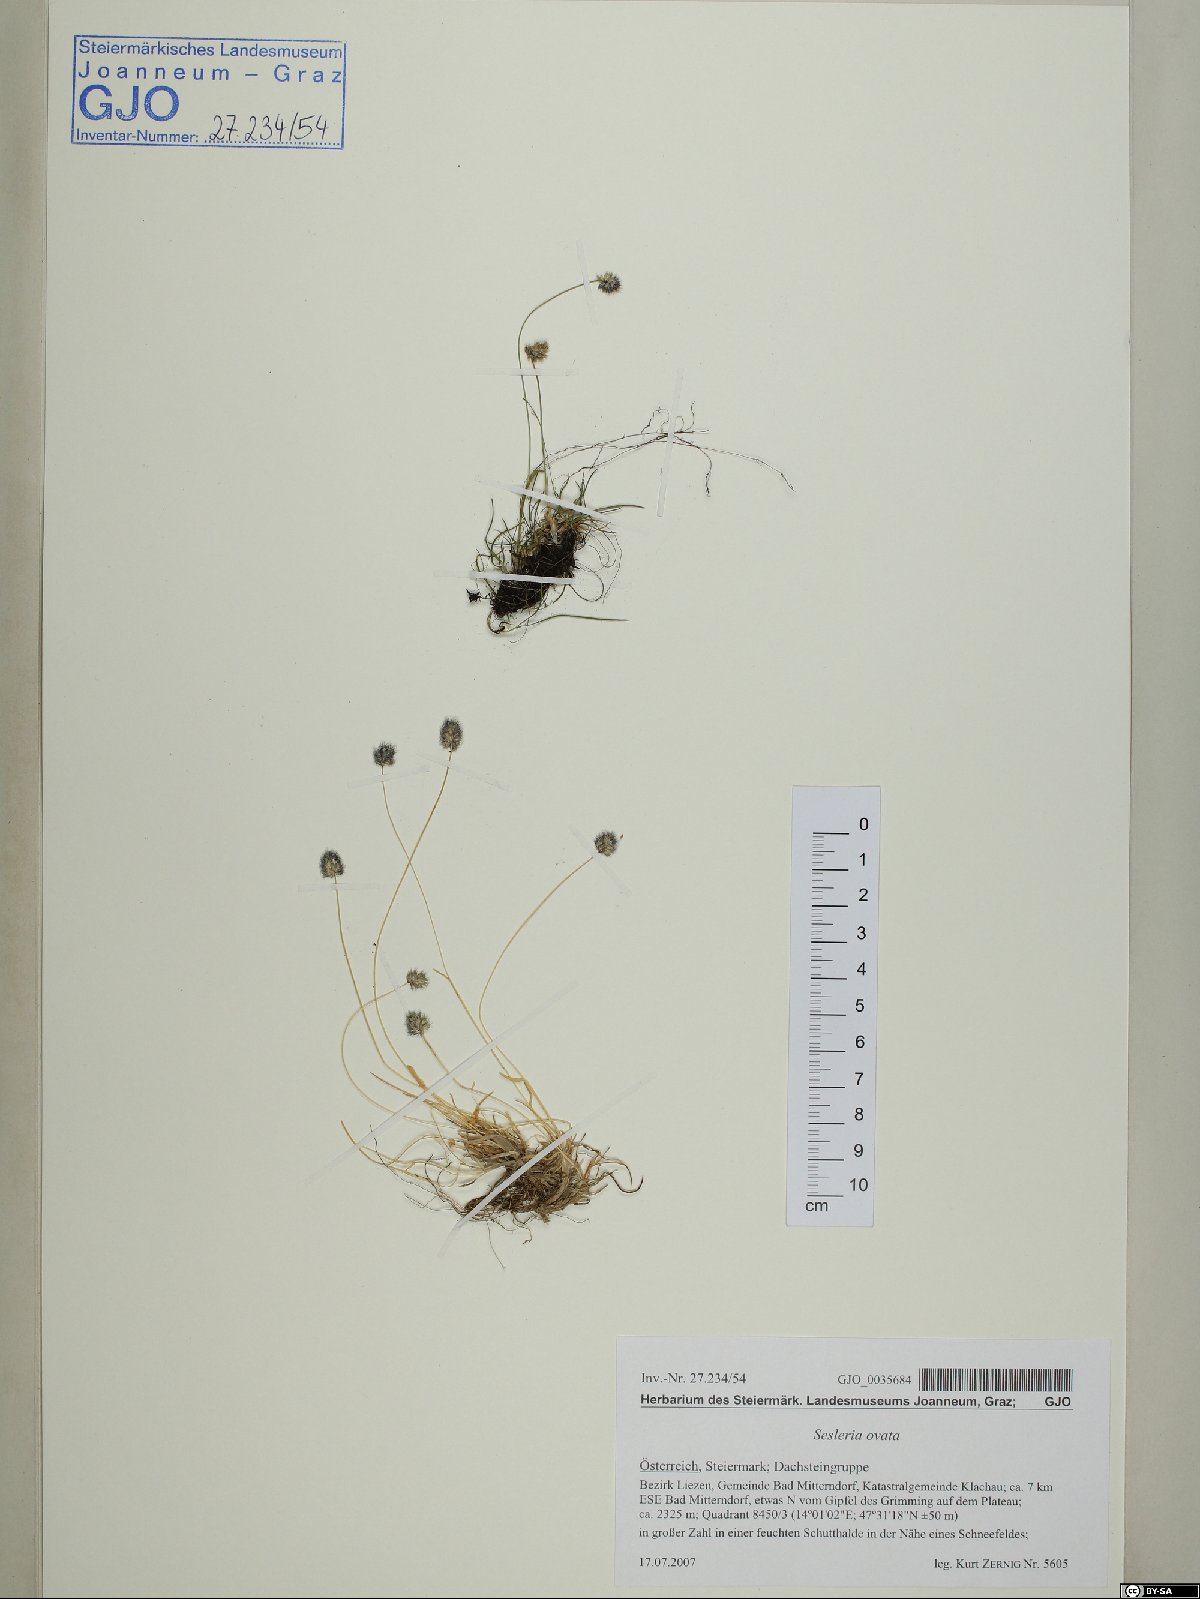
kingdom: Plantae
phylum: Tracheophyta
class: Liliopsida
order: Poales
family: Poaceae
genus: Psilathera
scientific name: Psilathera ovata
